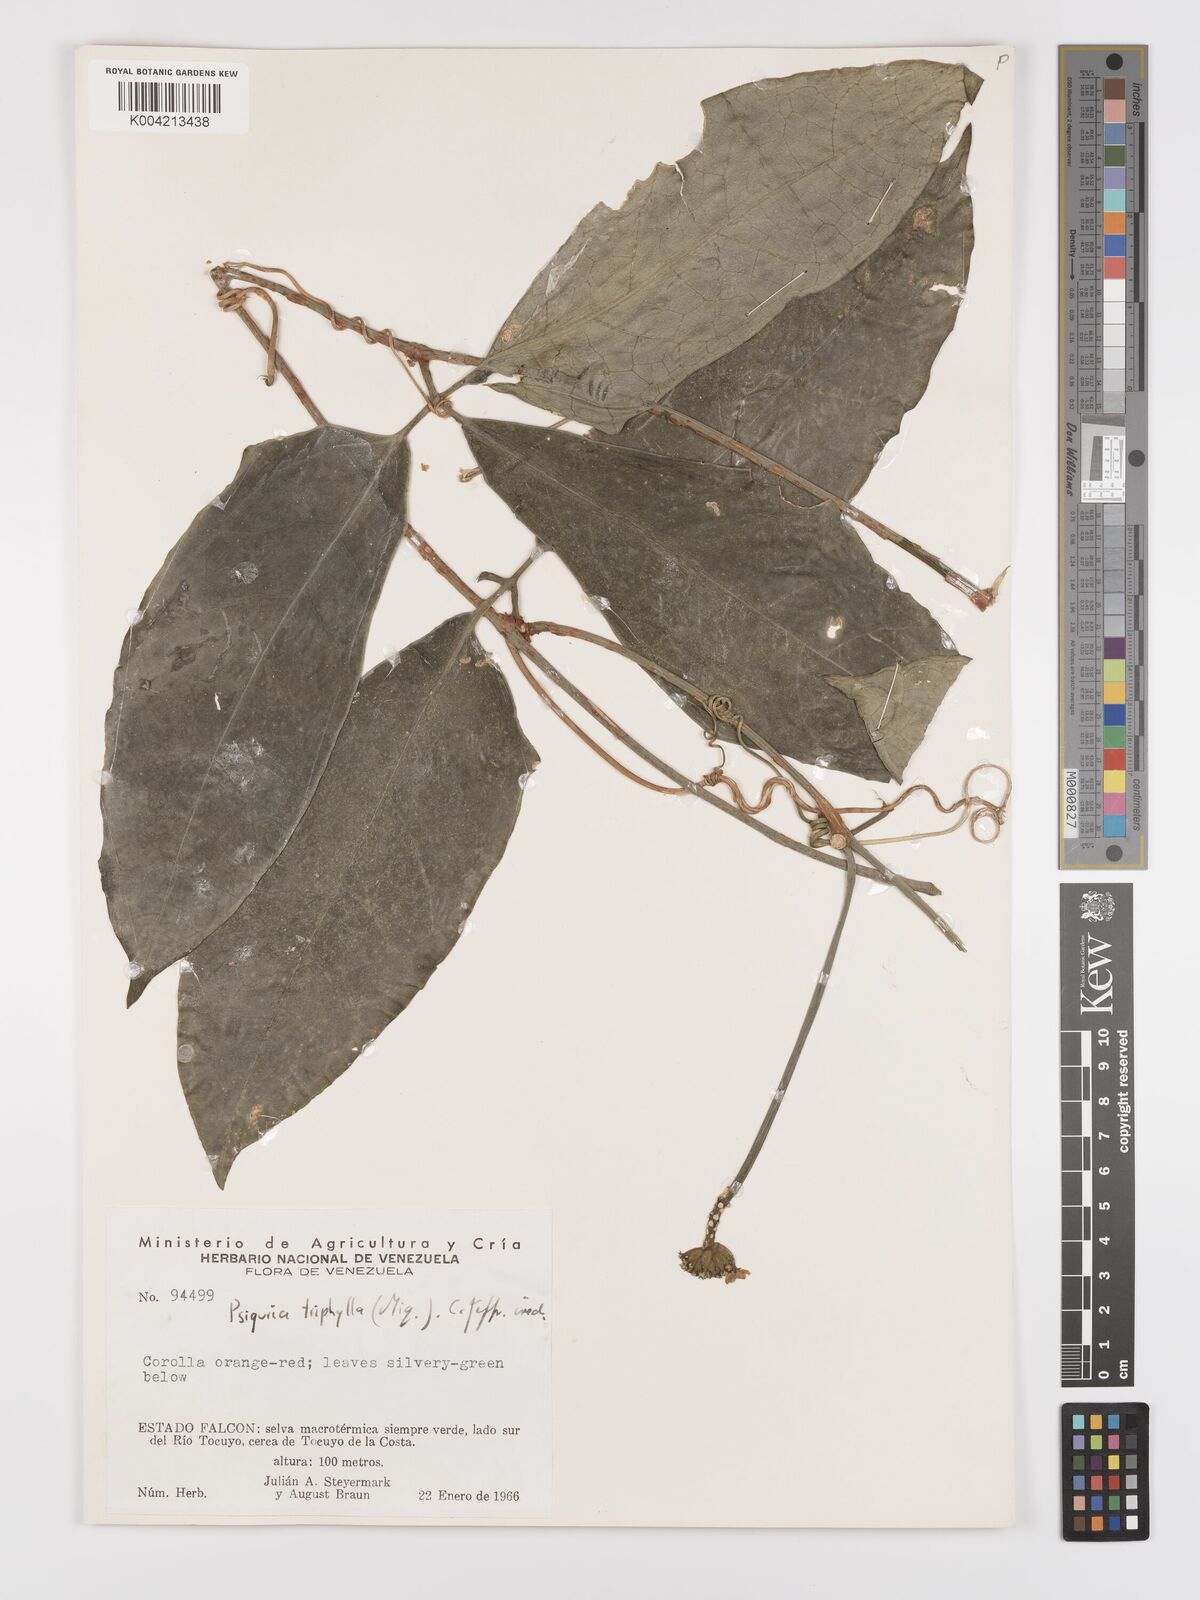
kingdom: Plantae
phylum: Tracheophyta
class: Magnoliopsida
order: Cucurbitales
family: Cucurbitaceae
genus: Psiguria
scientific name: Psiguria triphylla
